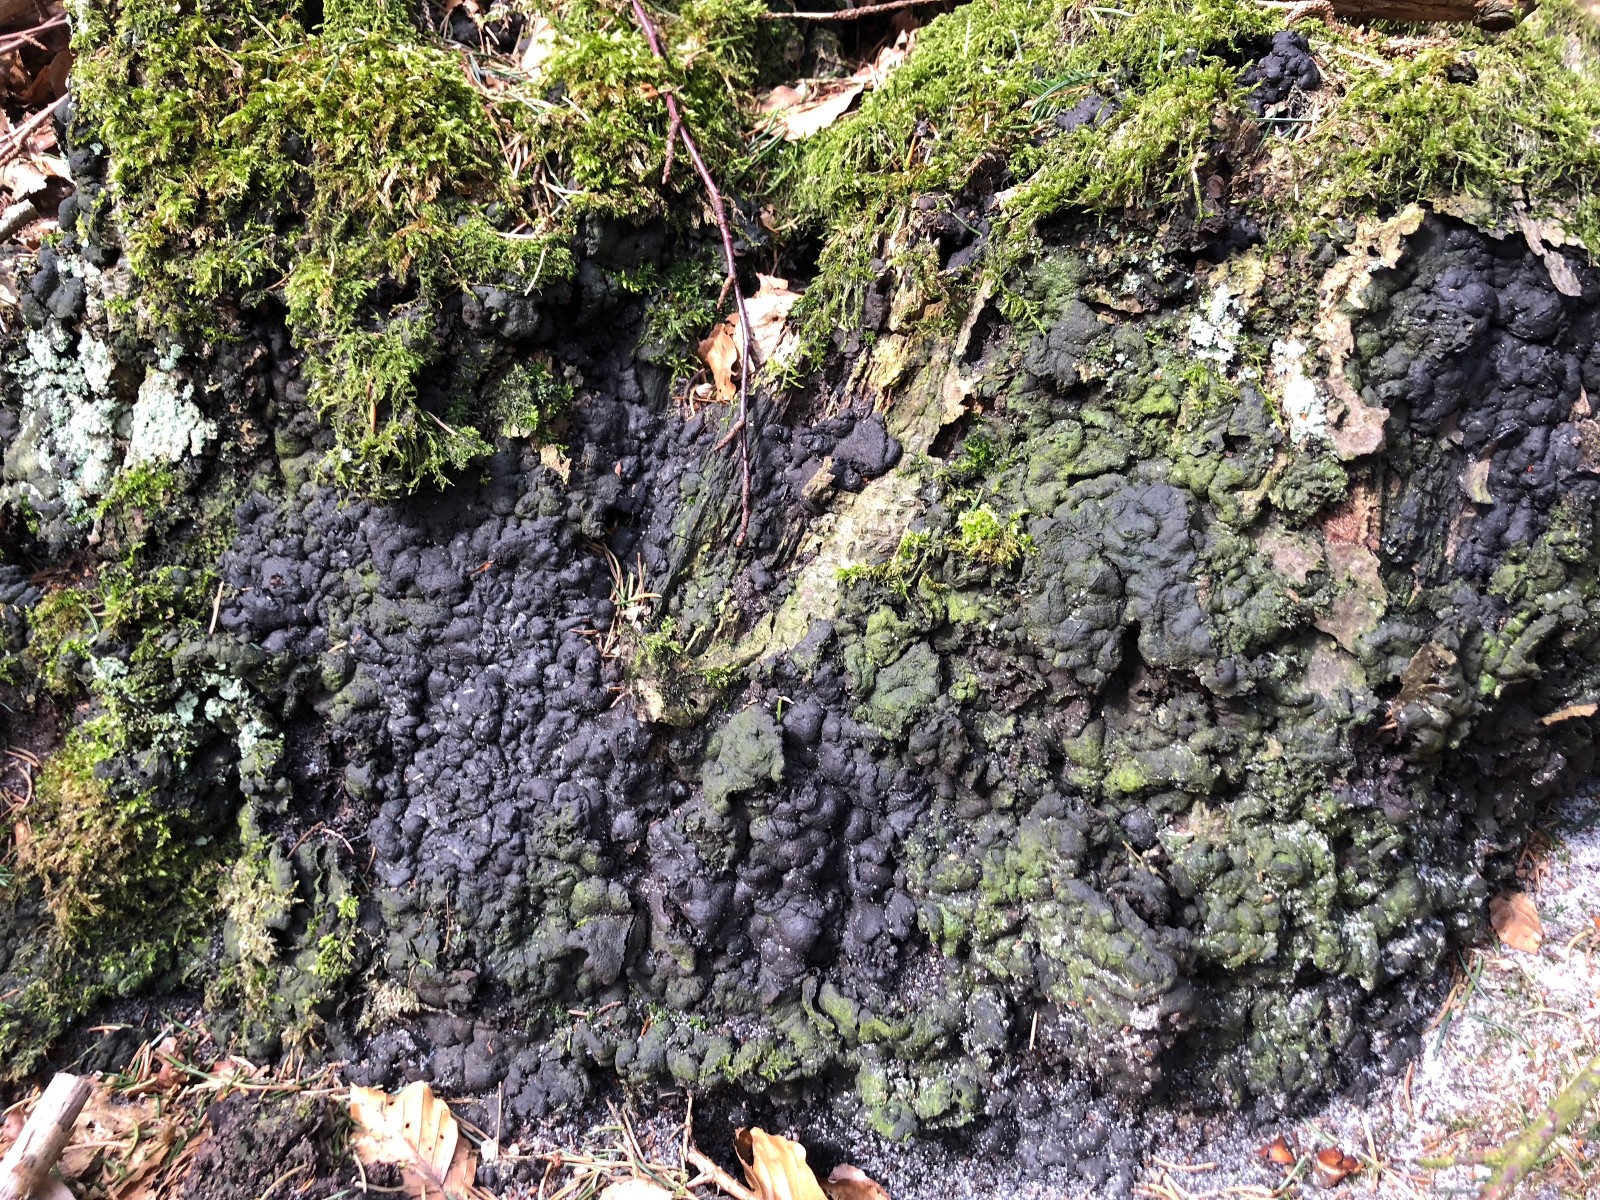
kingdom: Fungi
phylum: Ascomycota
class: Sordariomycetes
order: Xylariales
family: Xylariaceae
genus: Kretzschmaria
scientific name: Kretzschmaria deusta
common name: stor kulsvamp
